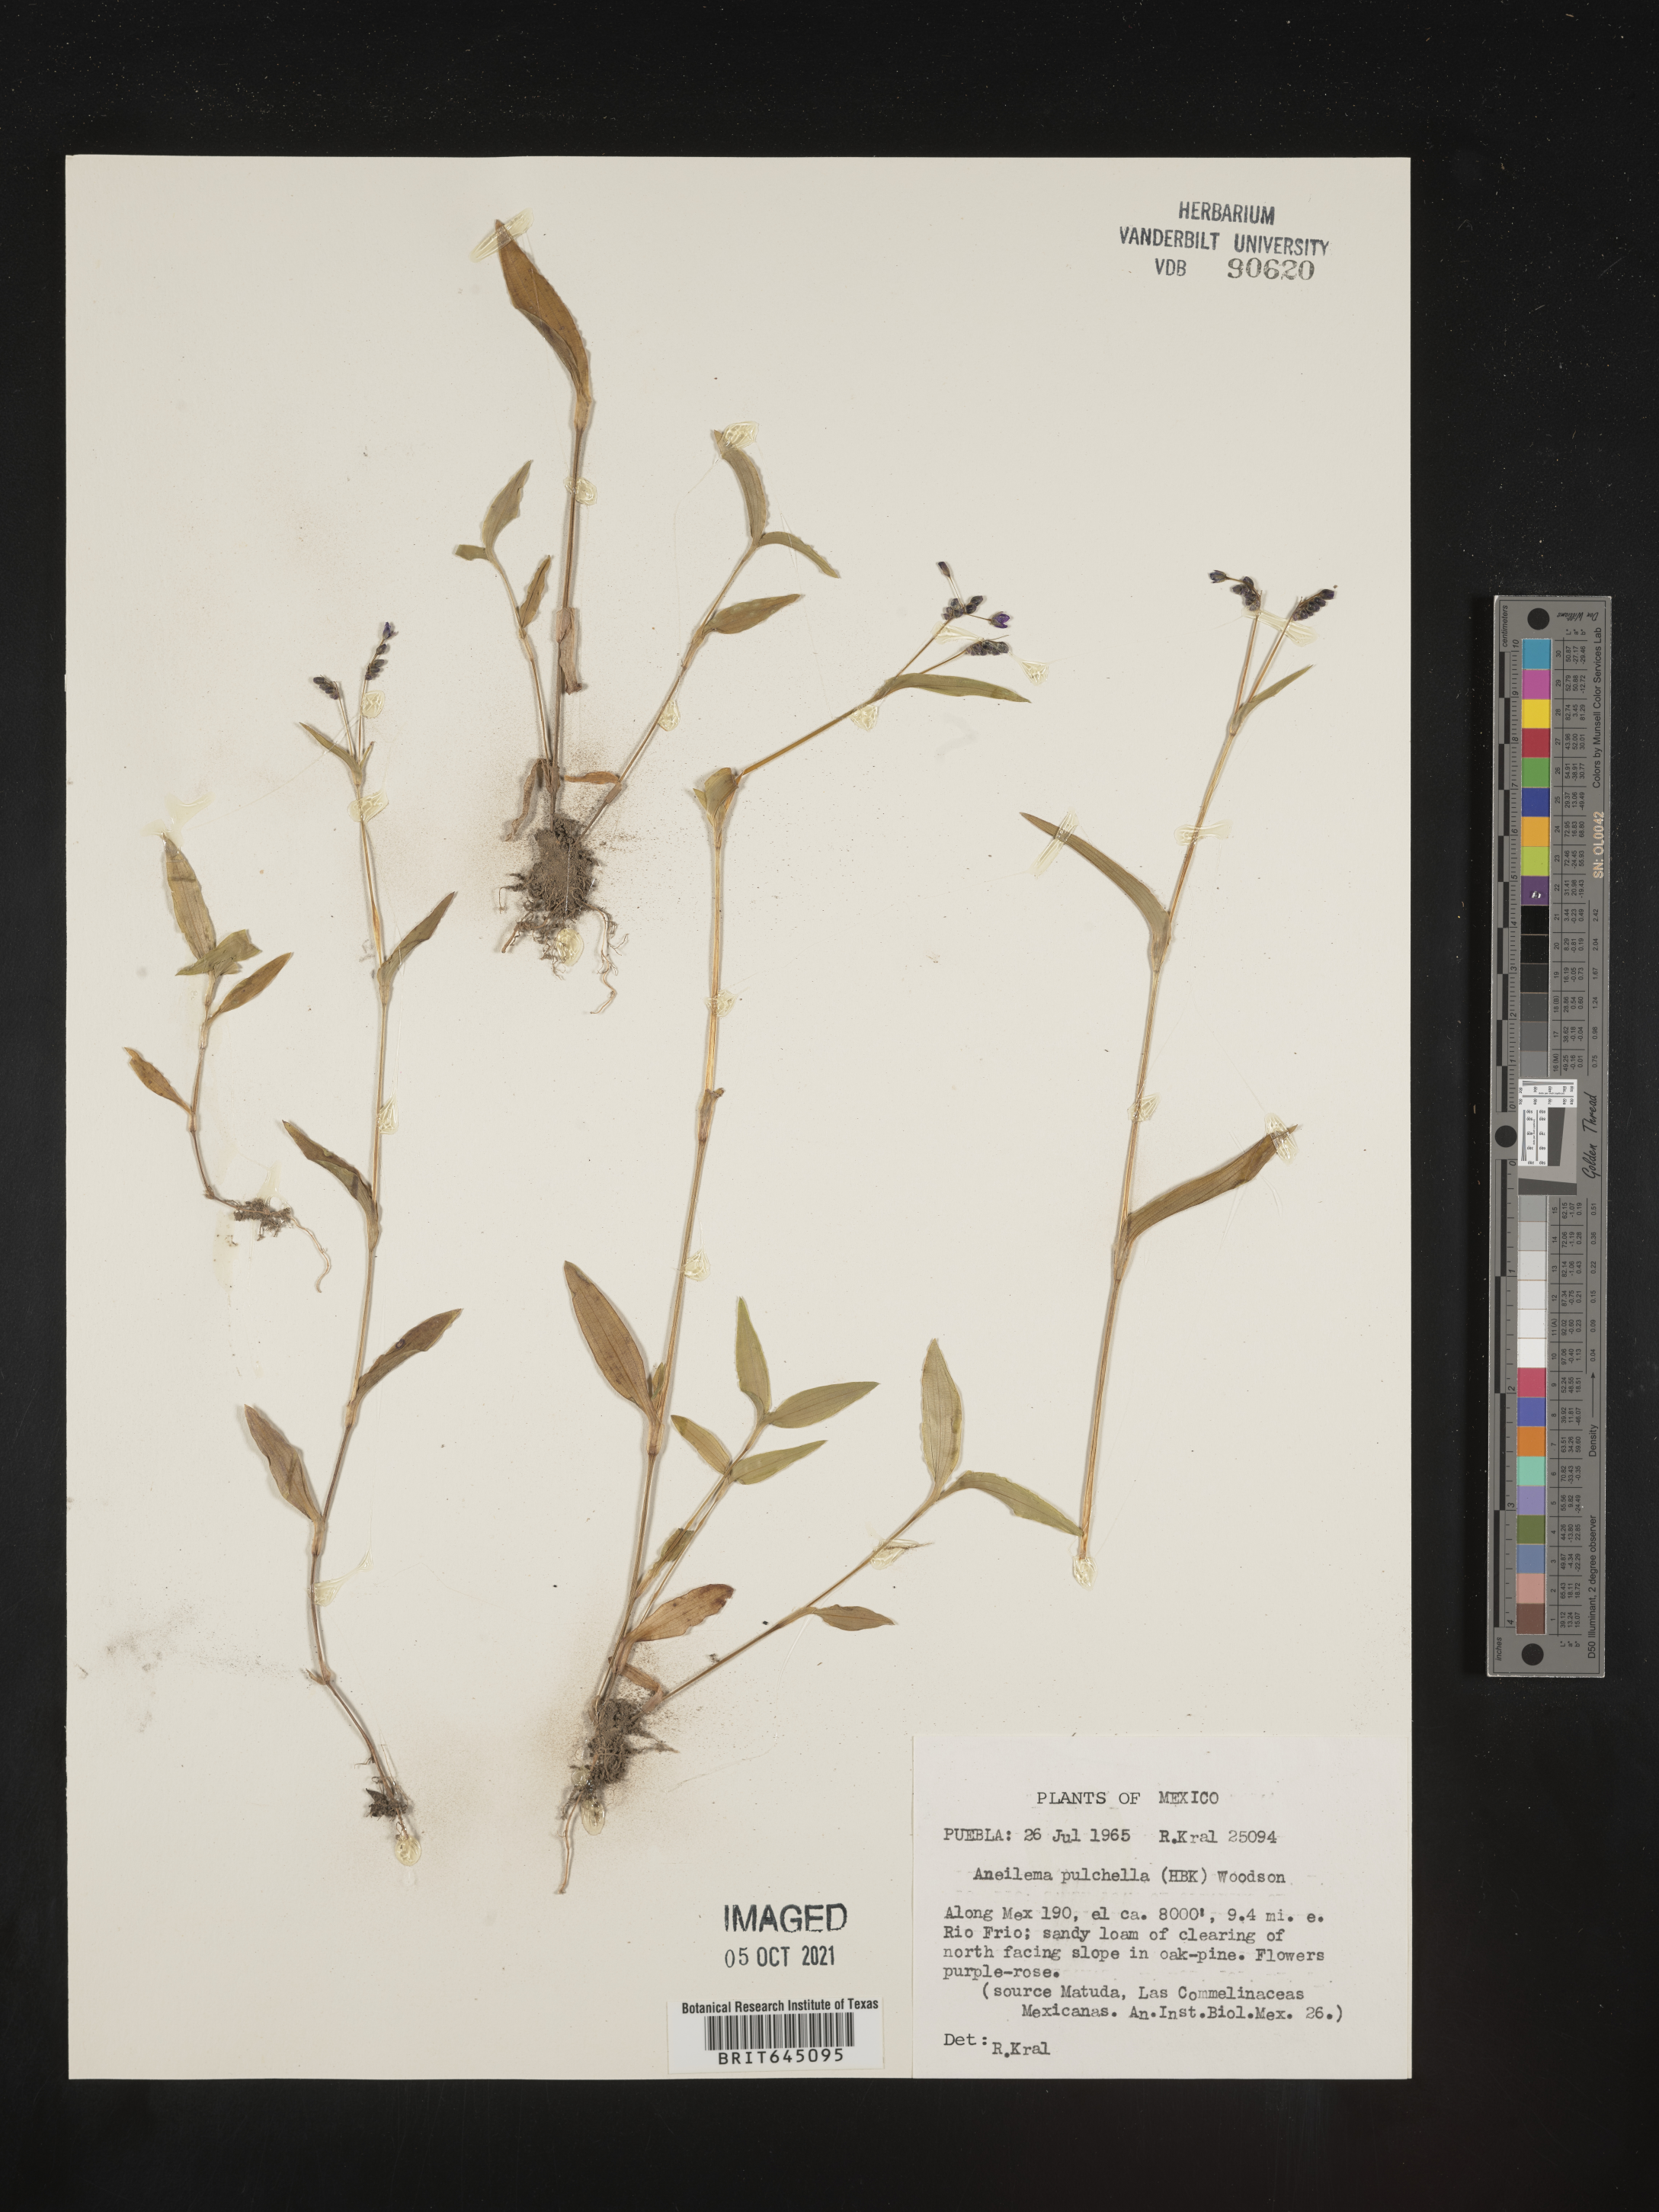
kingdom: Plantae
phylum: Tracheophyta
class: Liliopsida
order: Commelinales
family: Commelinaceae
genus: Aneilema
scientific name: Aneilema
